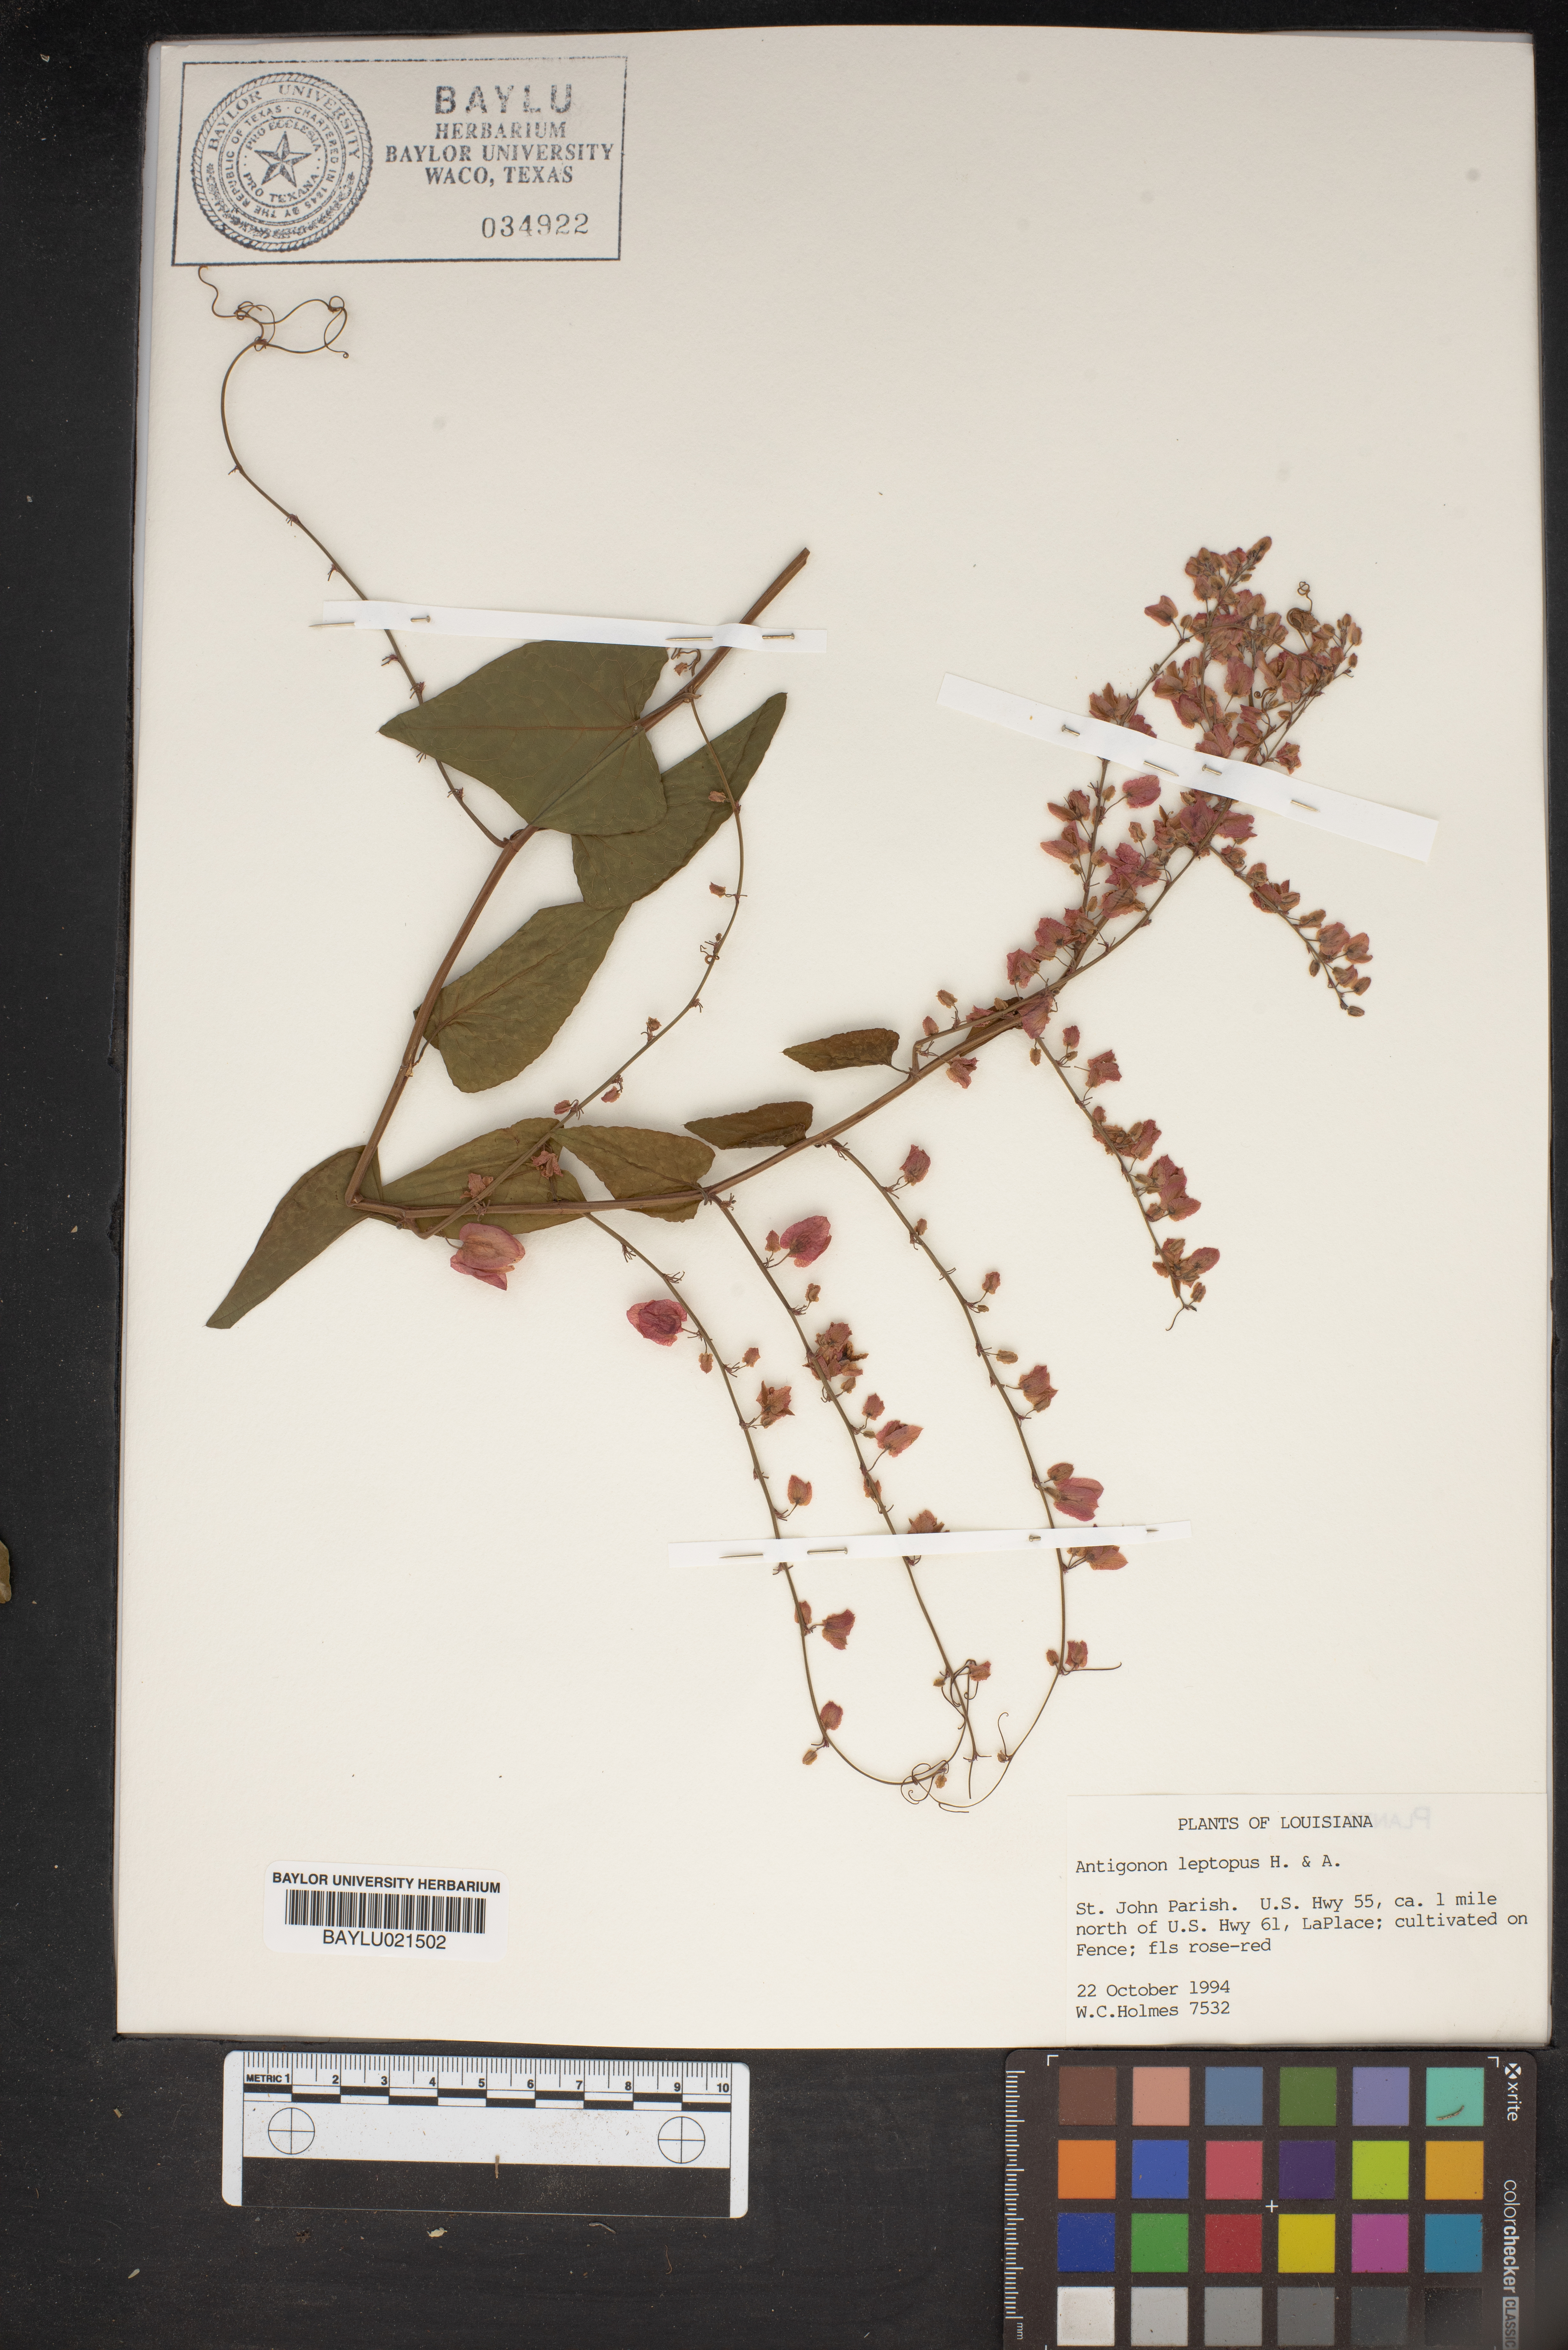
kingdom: Plantae
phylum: Tracheophyta
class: Magnoliopsida
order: Caryophyllales
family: Polygonaceae
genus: Antigonon
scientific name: Antigonon leptopus
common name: Coral vine
